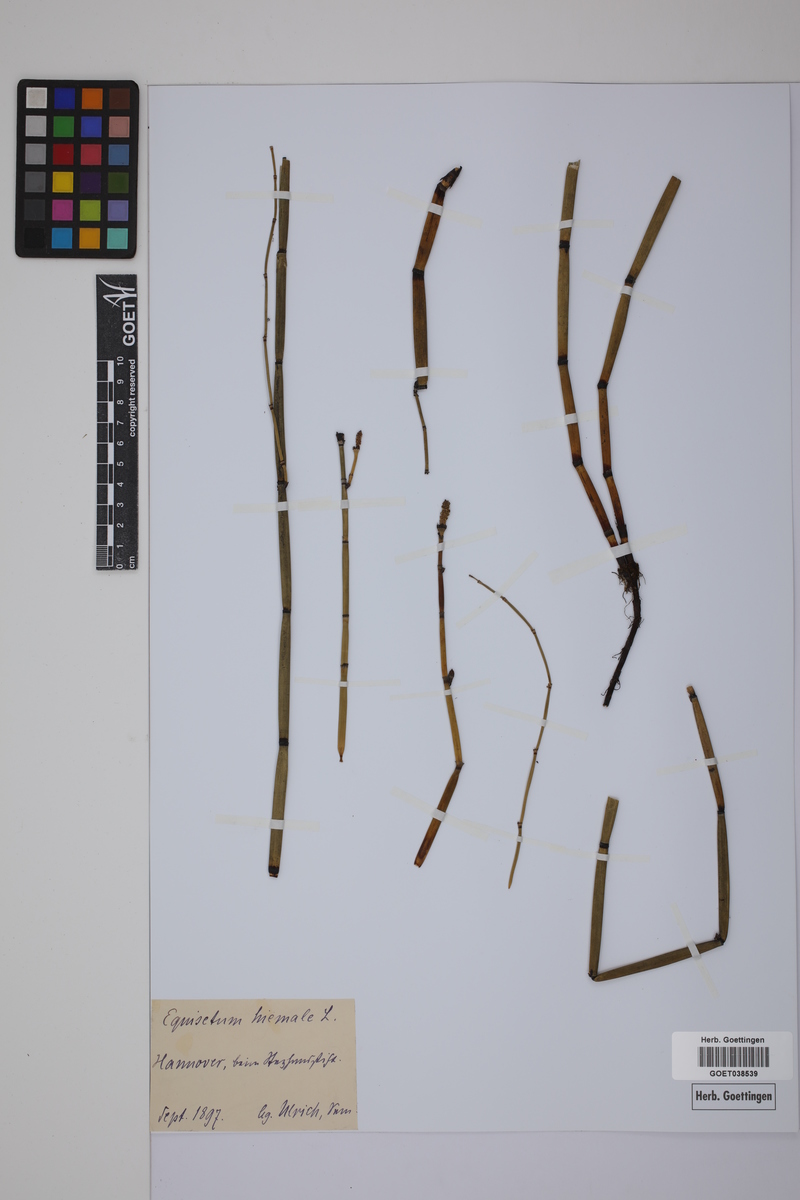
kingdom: Plantae
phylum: Tracheophyta
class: Polypodiopsida
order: Equisetales
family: Equisetaceae
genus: Equisetum
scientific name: Equisetum hyemale
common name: Rough horsetail
